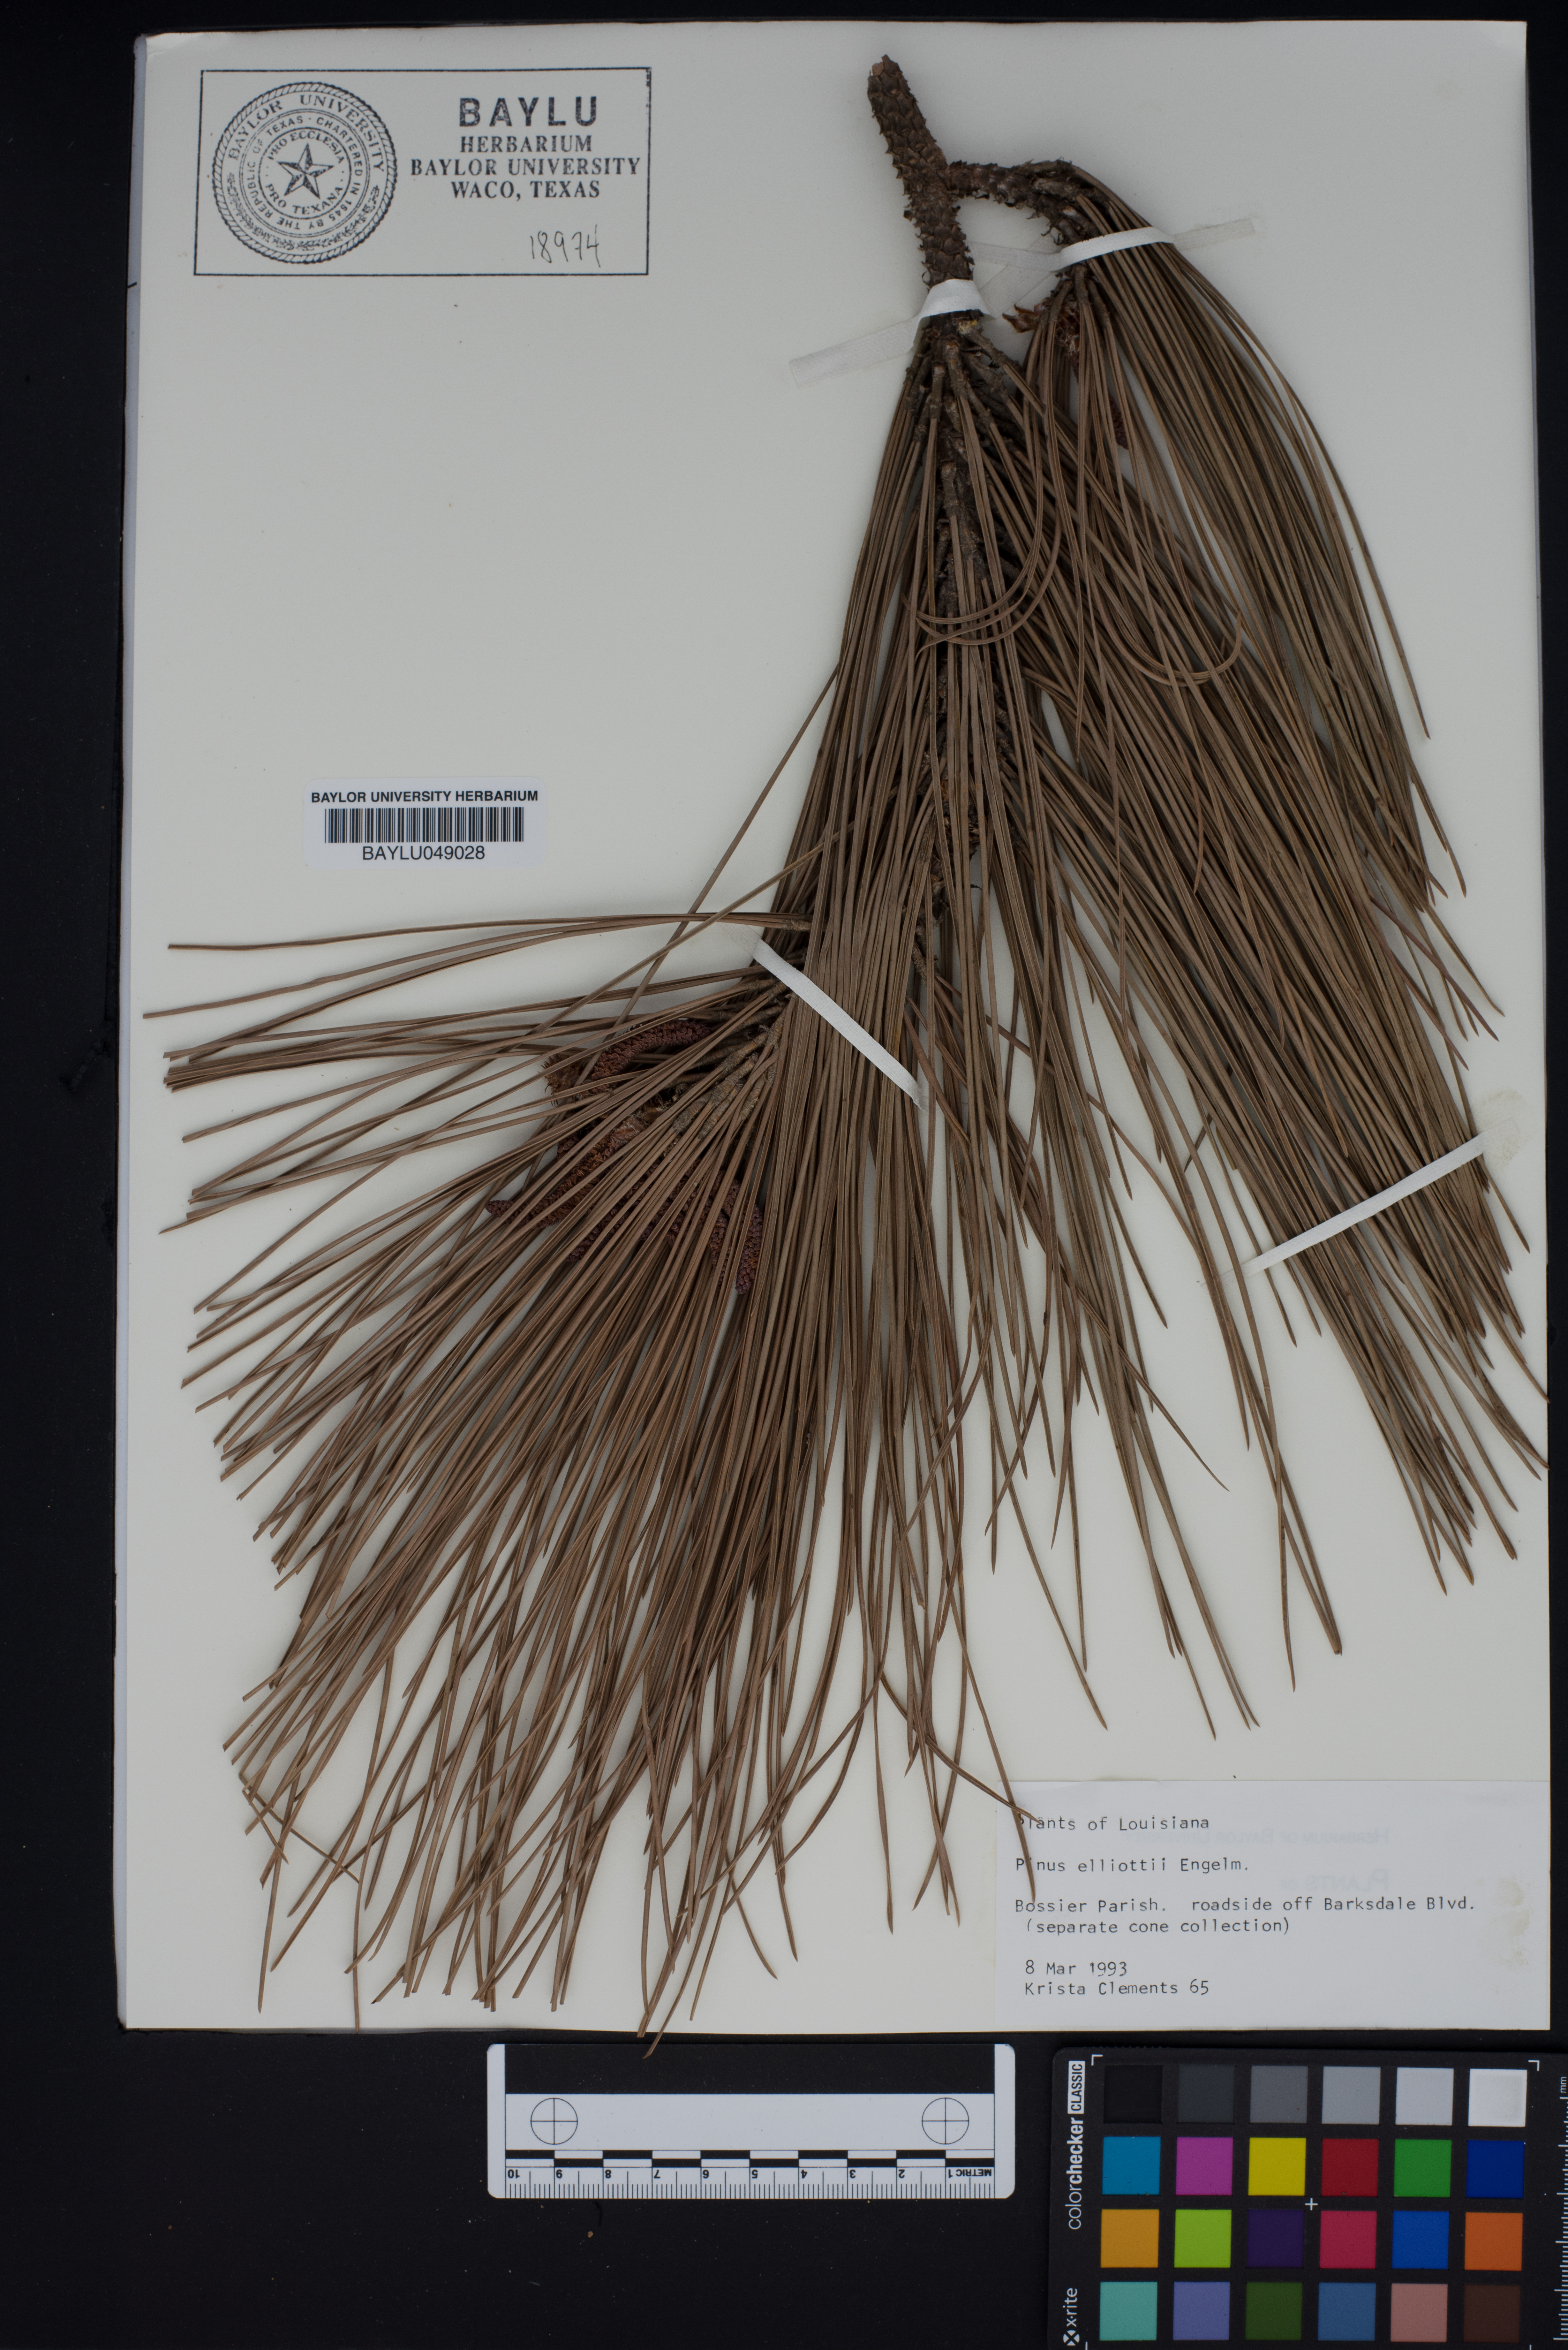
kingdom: Plantae
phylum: Tracheophyta
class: Pinopsida
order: Pinales
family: Pinaceae
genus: Pinus
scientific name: Pinus elliottii
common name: Slash pine
